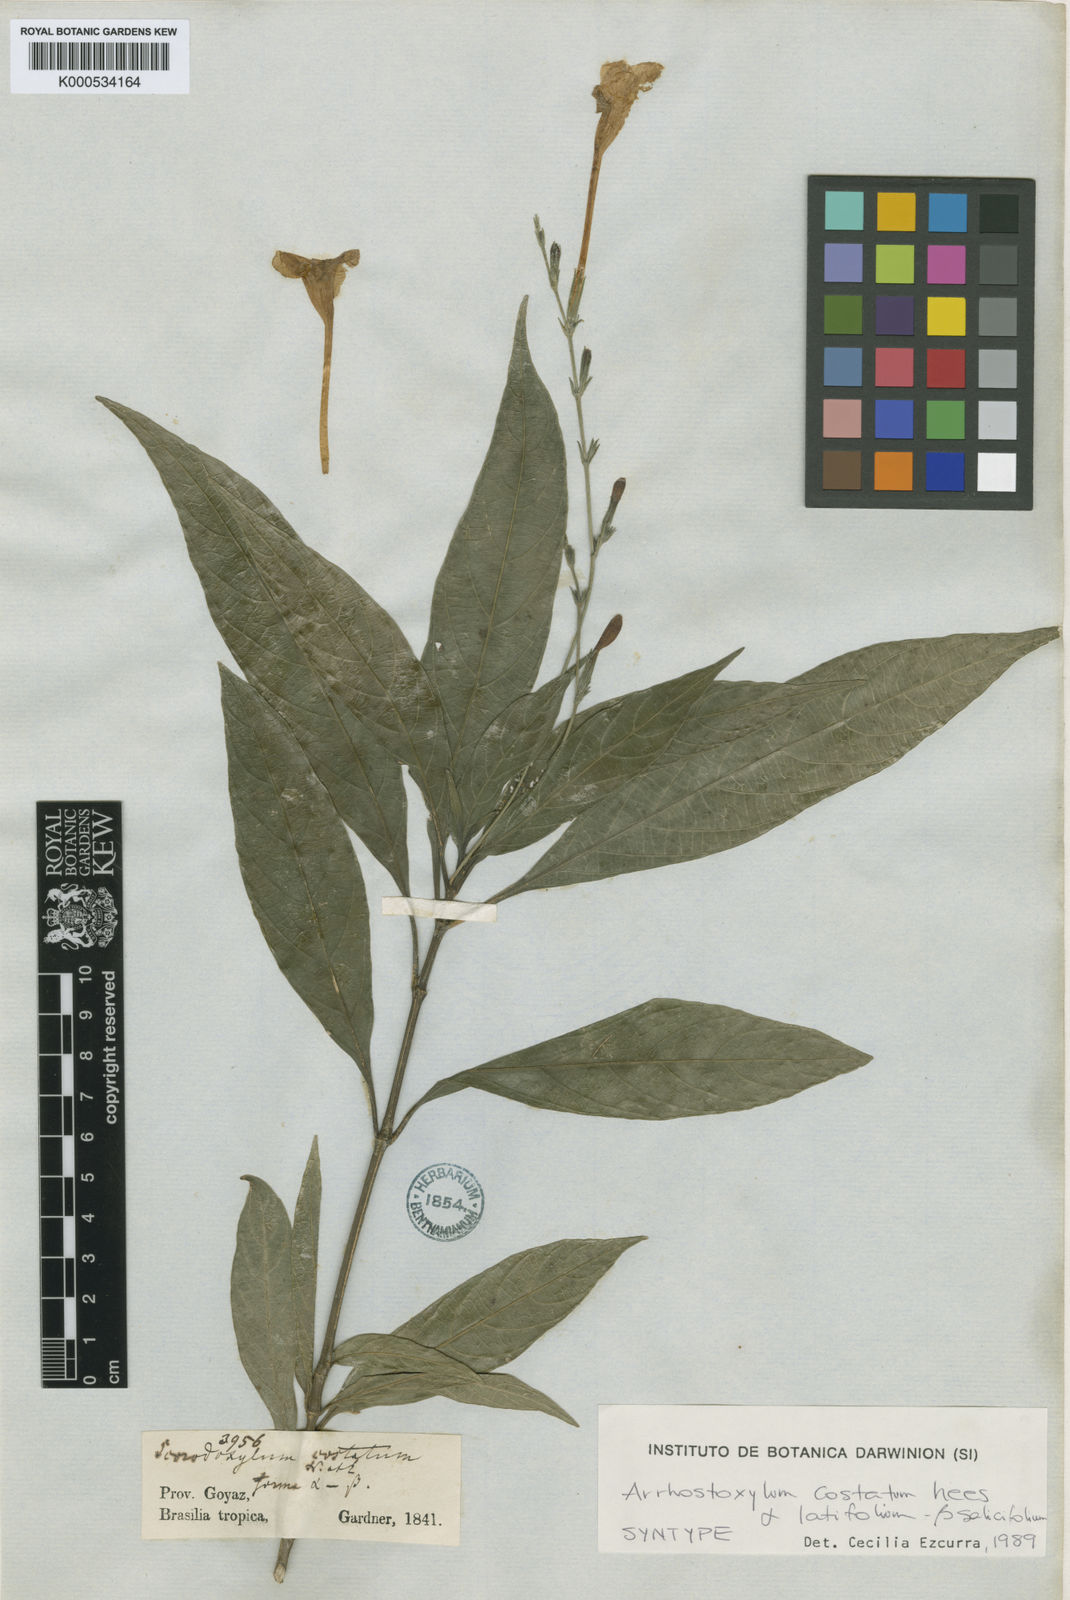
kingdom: Plantae
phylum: Tracheophyta
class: Magnoliopsida
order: Lamiales
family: Acanthaceae
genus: Ruellia
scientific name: Ruellia
